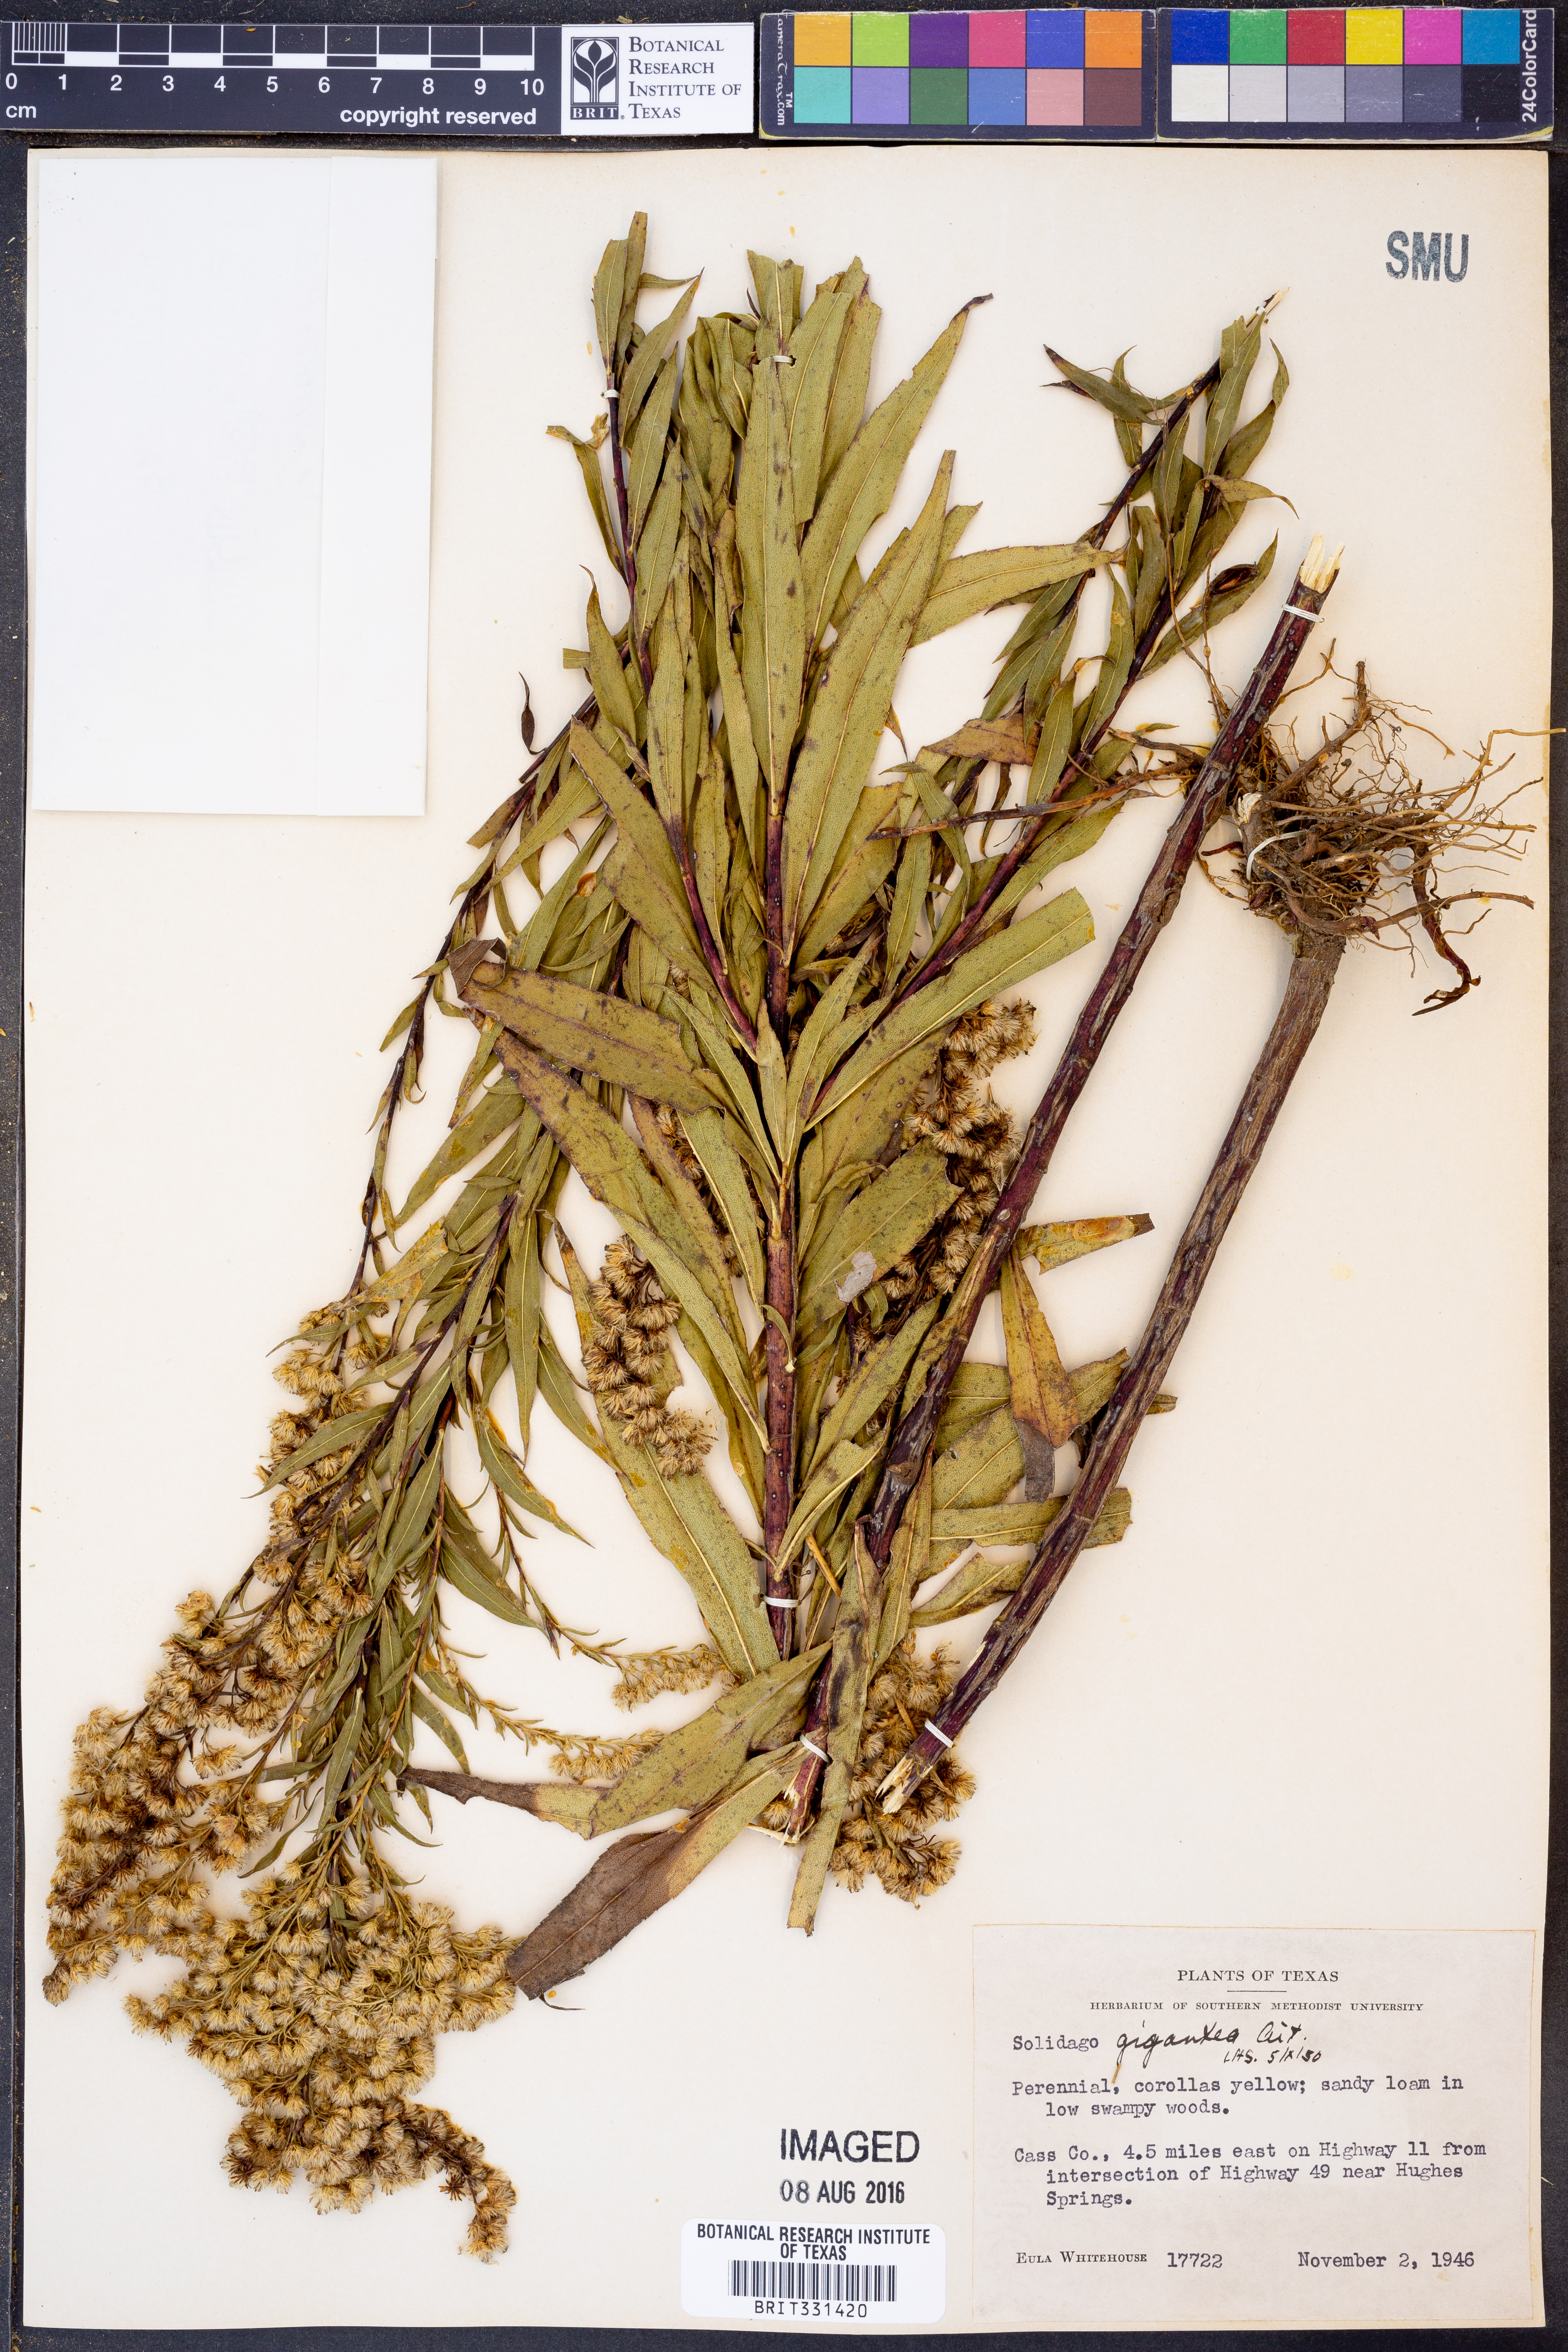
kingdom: Plantae
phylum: Tracheophyta
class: Magnoliopsida
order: Asterales
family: Asteraceae
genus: Solidago
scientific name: Solidago gigantea
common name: Giant goldenrod
